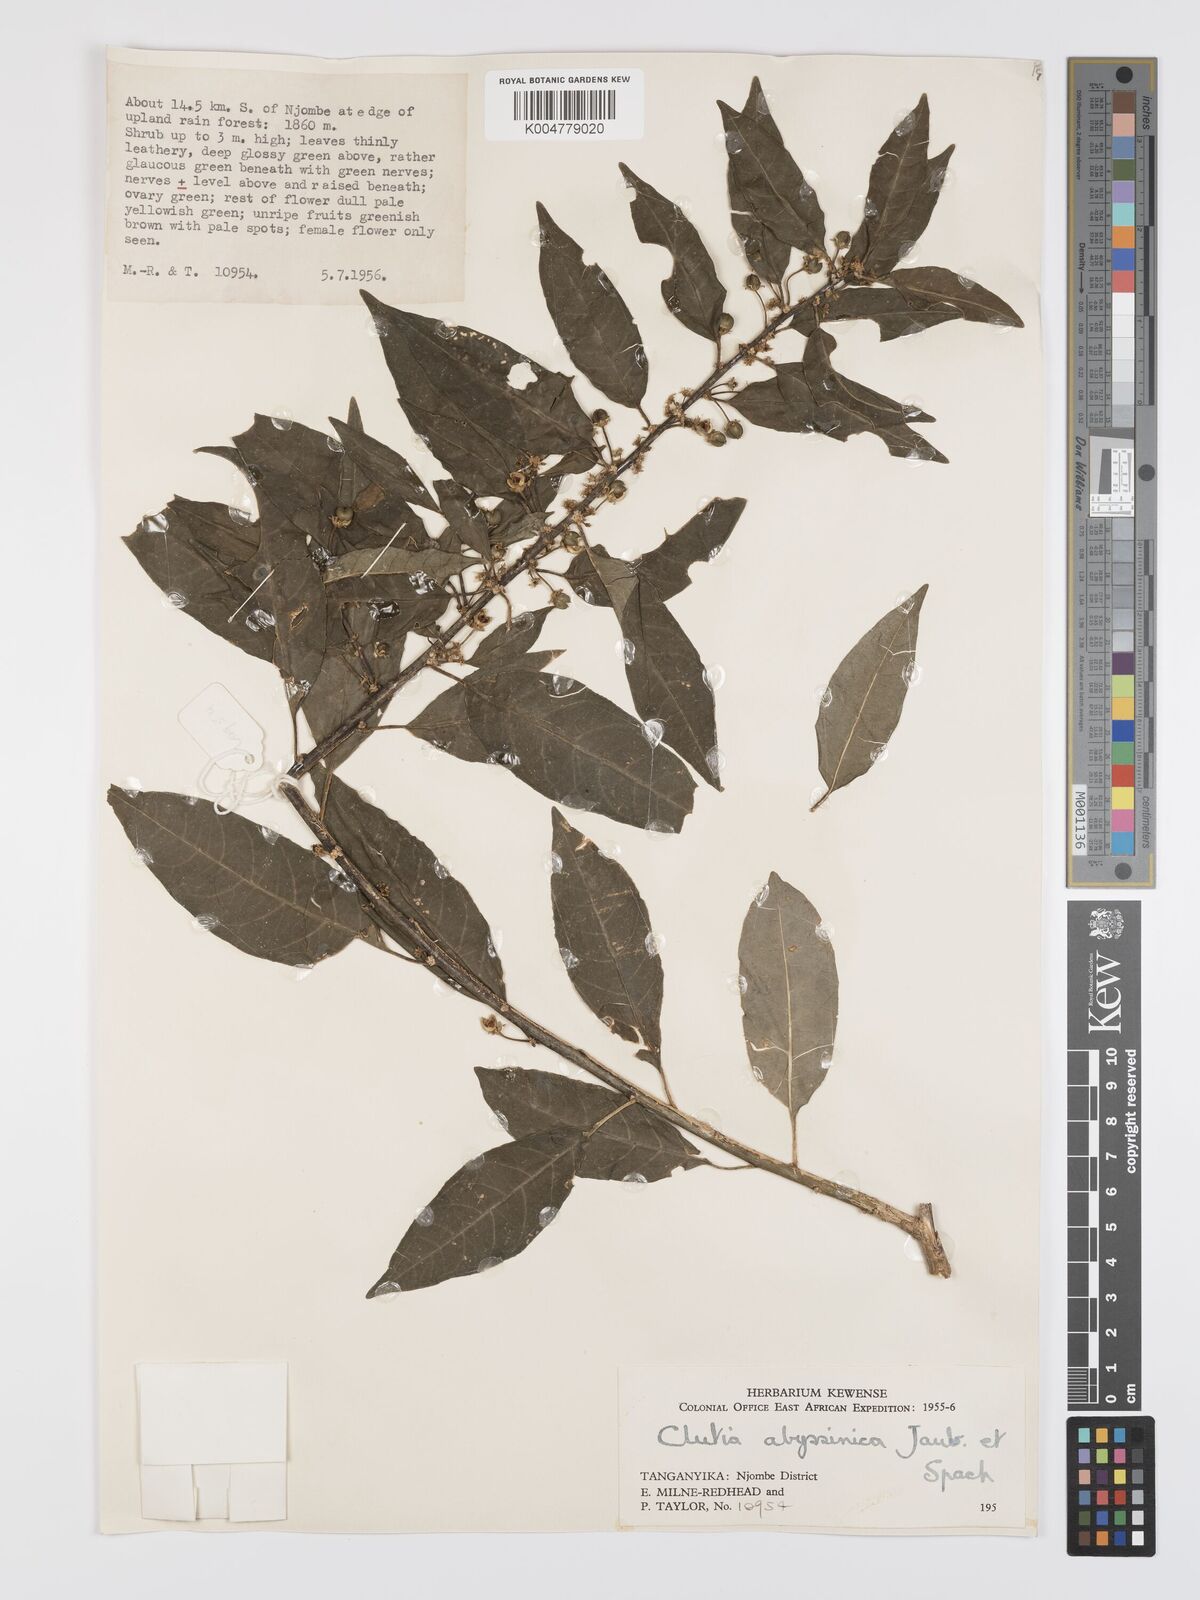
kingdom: Plantae
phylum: Tracheophyta
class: Magnoliopsida
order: Malpighiales
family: Peraceae
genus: Clutia
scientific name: Clutia abyssinica
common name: Large lightning bush
